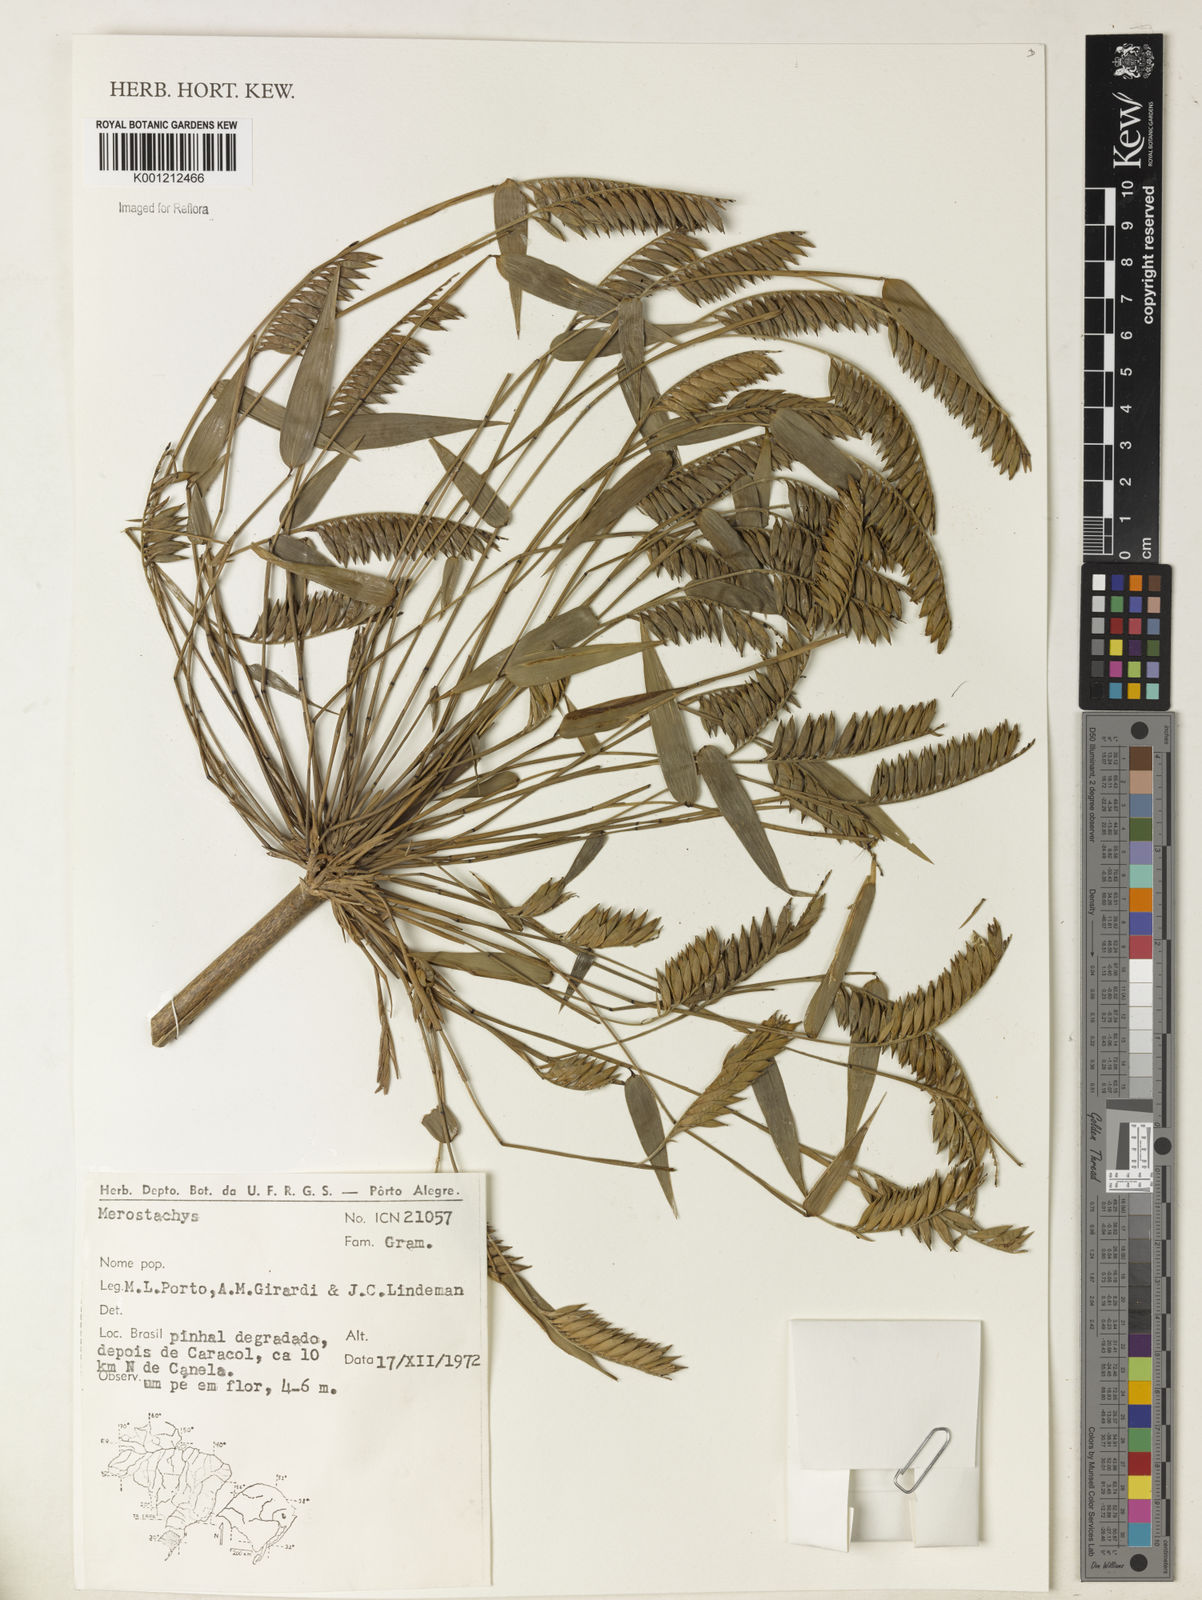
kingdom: Plantae
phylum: Tracheophyta
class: Liliopsida
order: Poales
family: Poaceae
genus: Merostachys
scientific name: Merostachys multiramea
